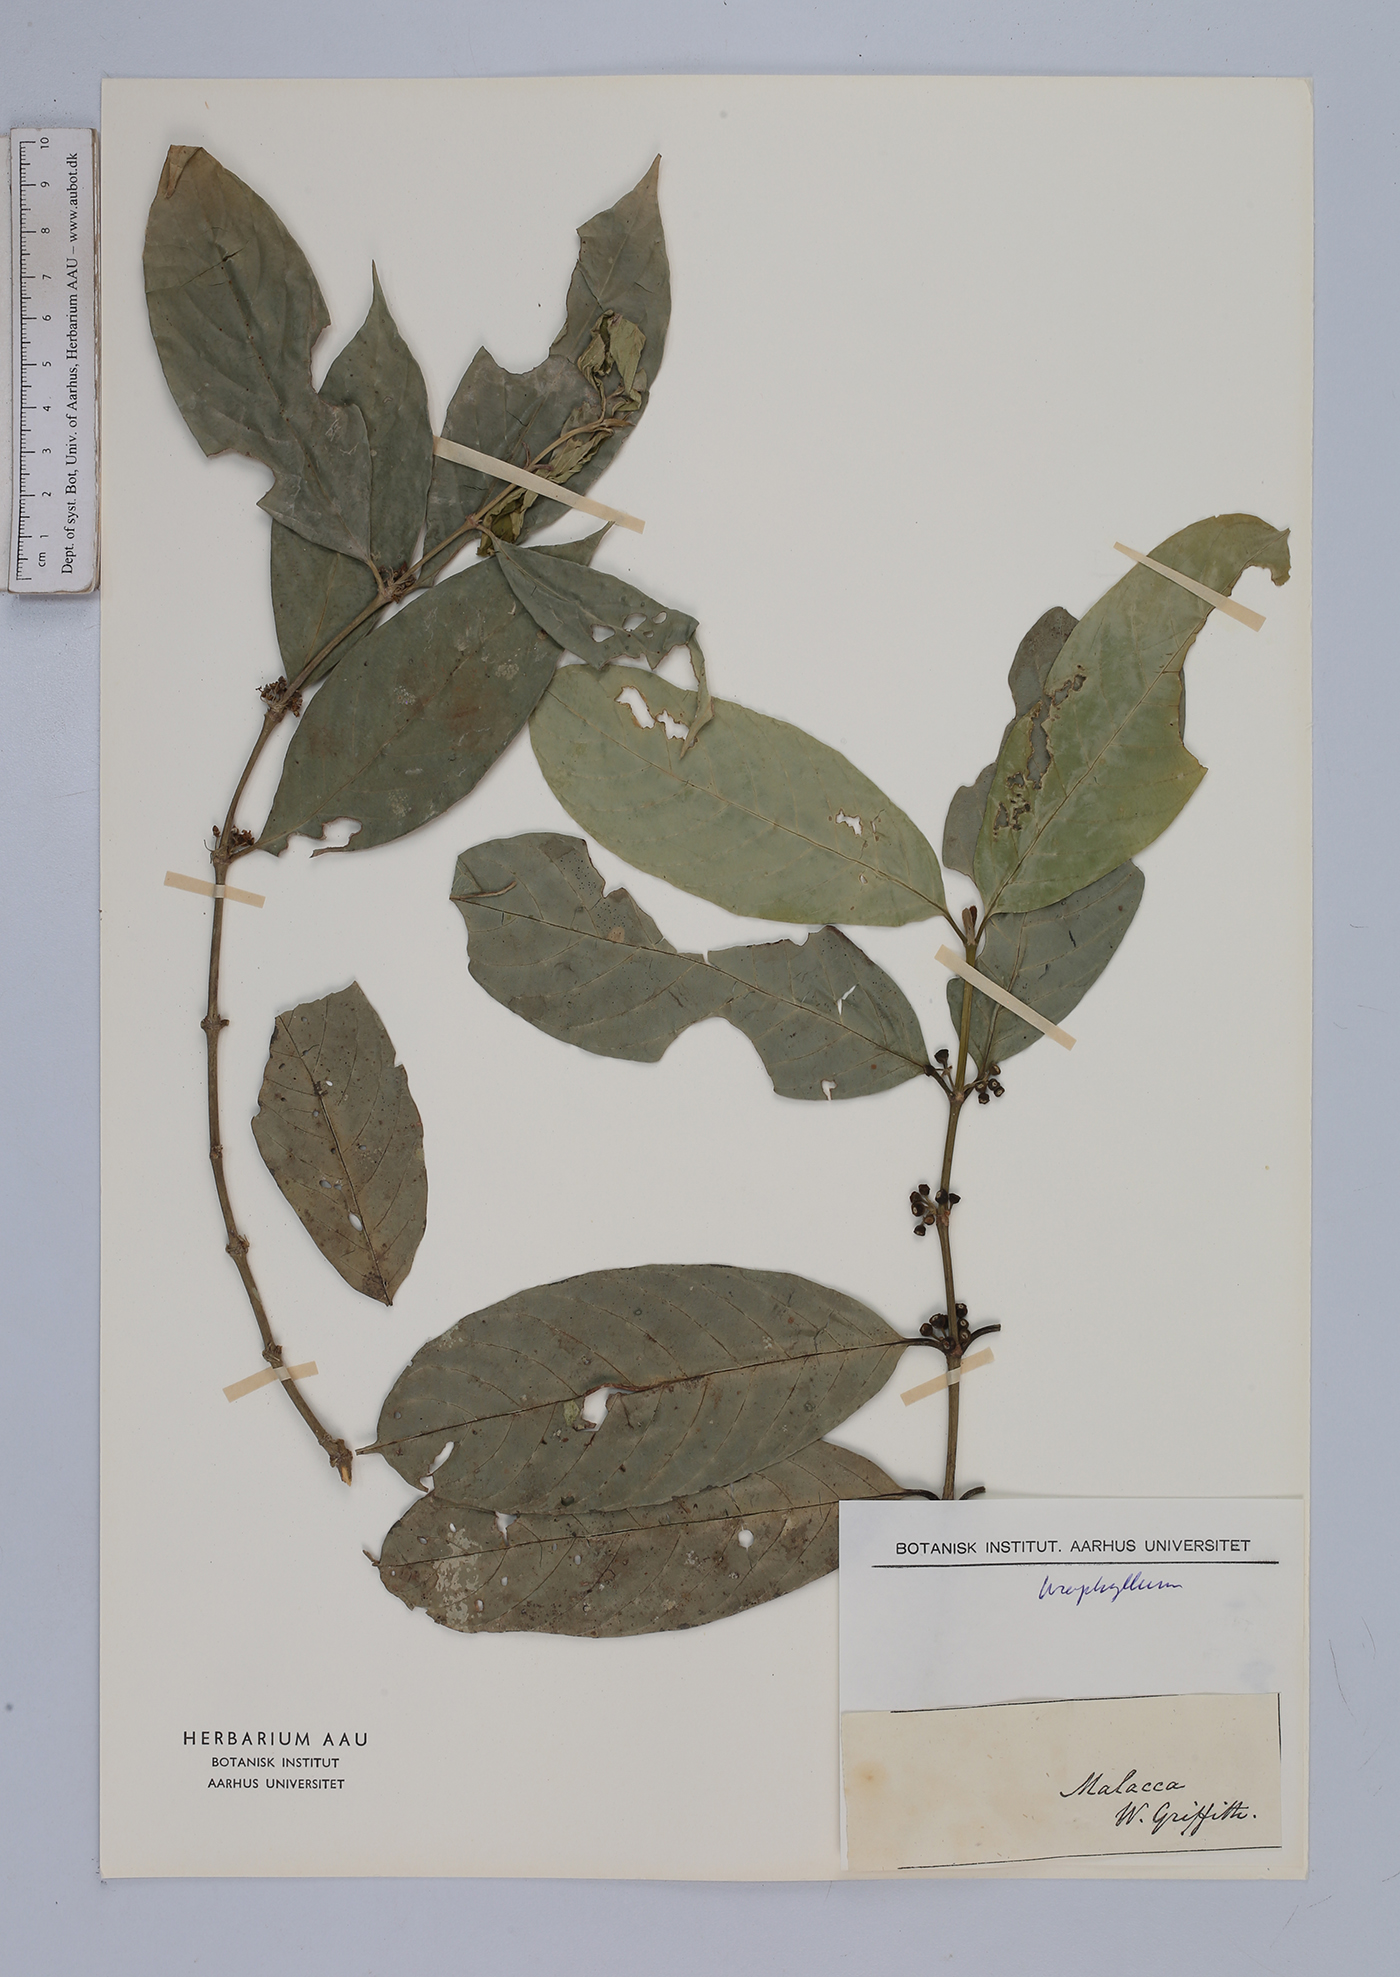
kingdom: Plantae
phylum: Tracheophyta
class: Magnoliopsida
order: Gentianales
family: Rubiaceae
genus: Urophyllum
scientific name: Urophyllum
